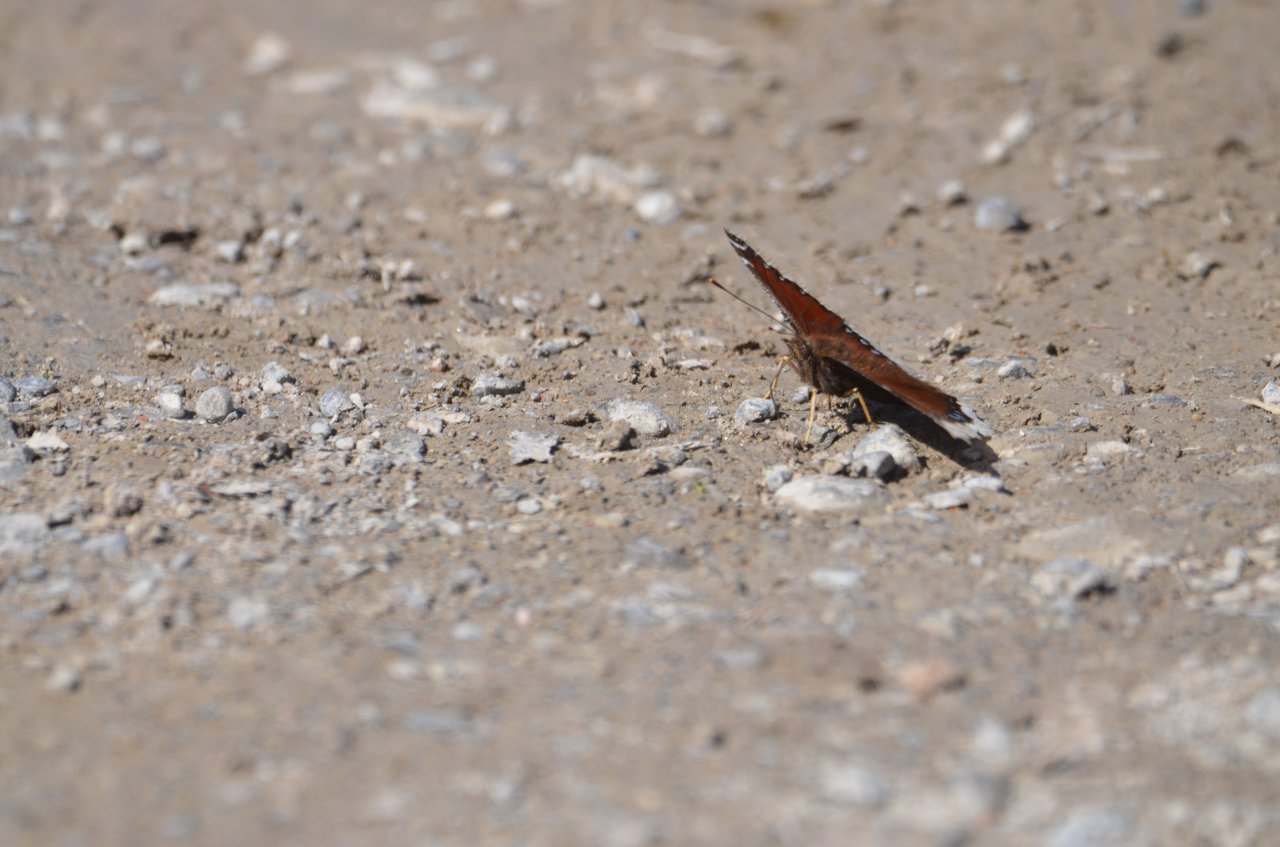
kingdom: Animalia
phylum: Arthropoda
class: Insecta
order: Lepidoptera
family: Nymphalidae
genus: Nymphalis
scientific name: Nymphalis antiopa
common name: Mourning Cloak
